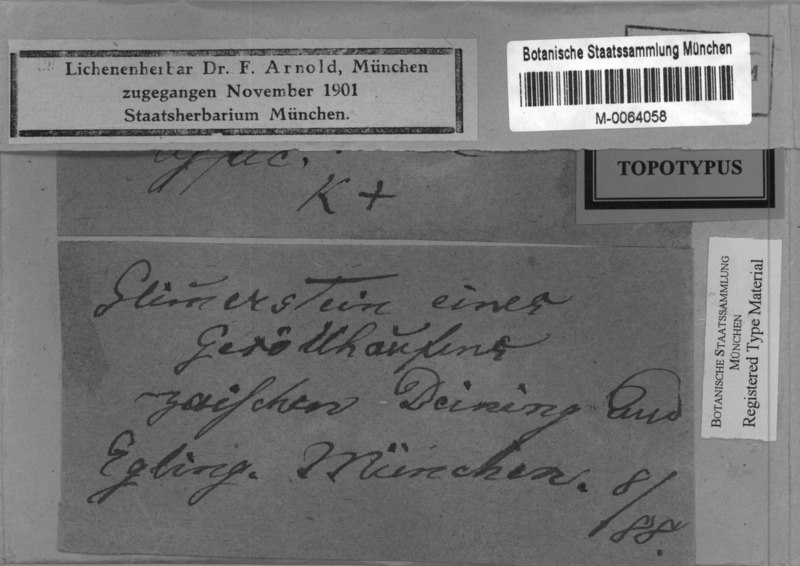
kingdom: Fungi
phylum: Ascomycota
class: Lecanoromycetes
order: Pertusariales
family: Megasporaceae
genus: Aspicilia
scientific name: Aspicilia grisea
